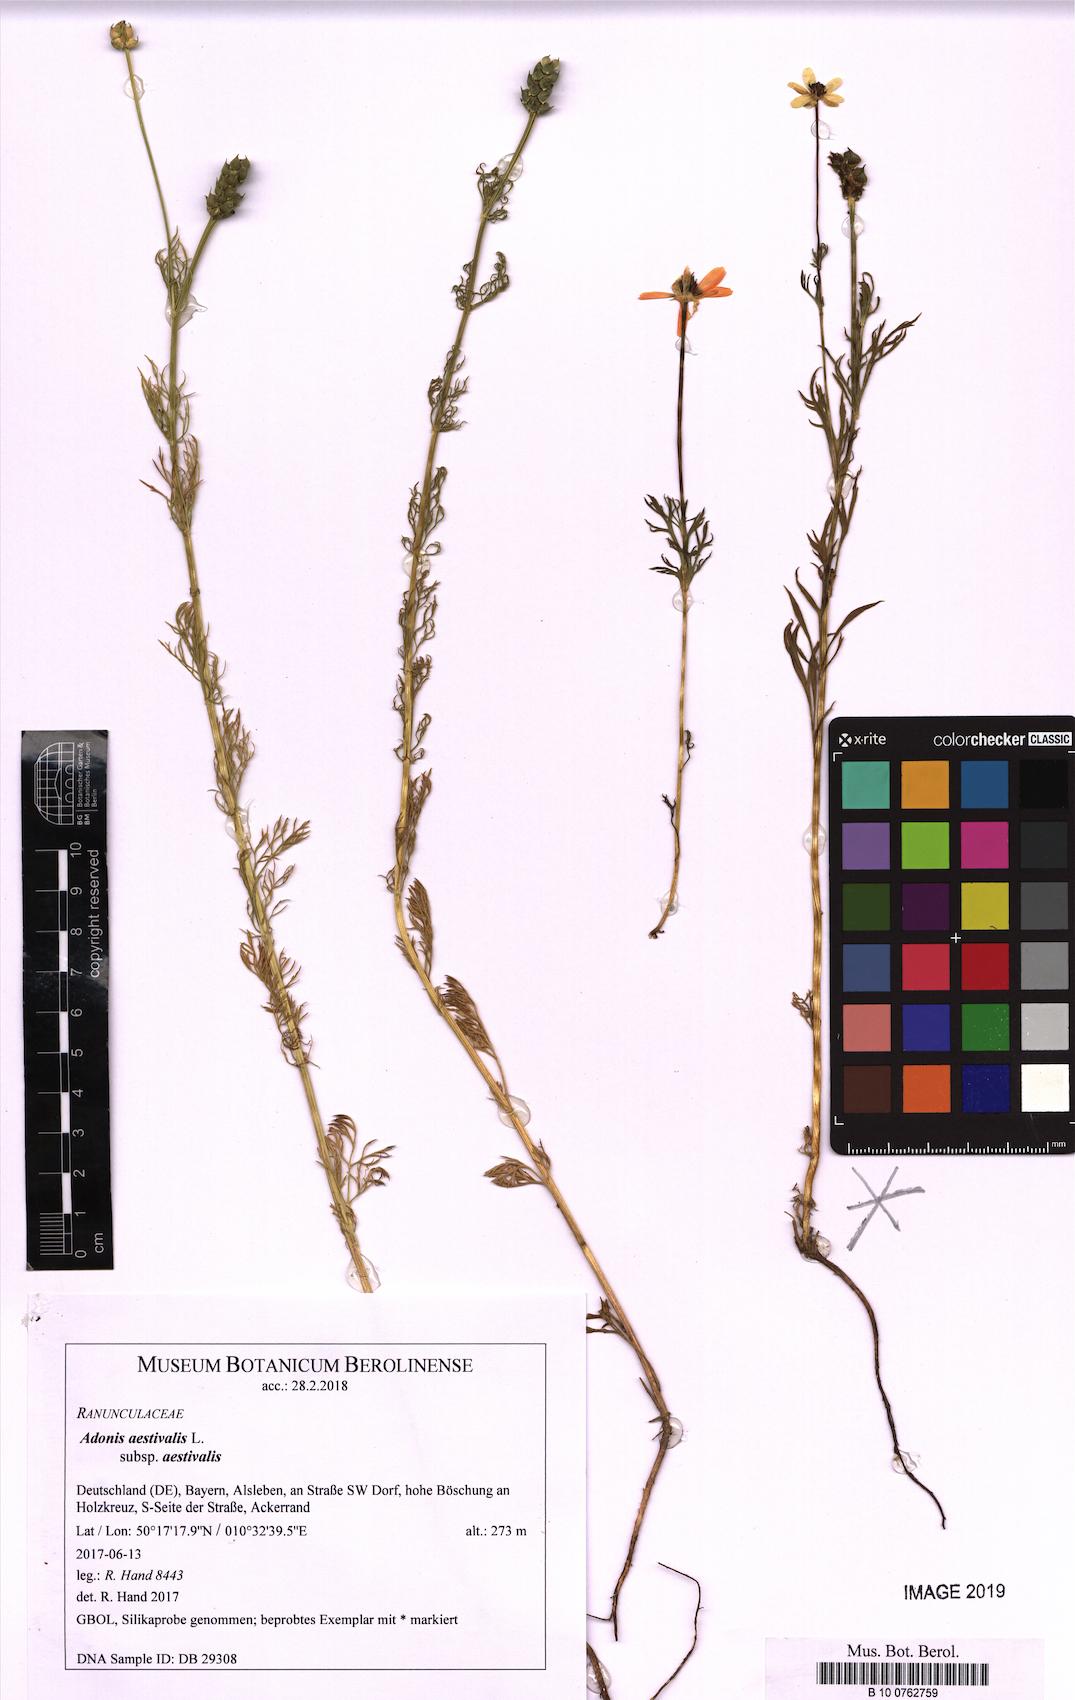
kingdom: Plantae
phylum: Tracheophyta
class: Magnoliopsida
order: Ranunculales
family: Ranunculaceae
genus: Adonis
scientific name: Adonis aestivalis
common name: Summer pheasant's-eye
